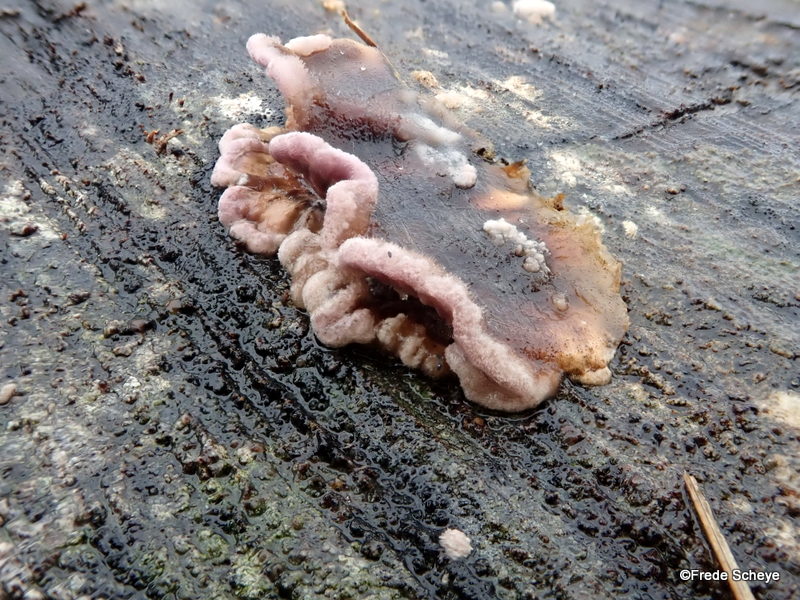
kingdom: Fungi
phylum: Basidiomycota
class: Agaricomycetes
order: Agaricales
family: Cyphellaceae
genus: Chondrostereum
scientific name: Chondrostereum purpureum
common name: purpurlædersvamp
